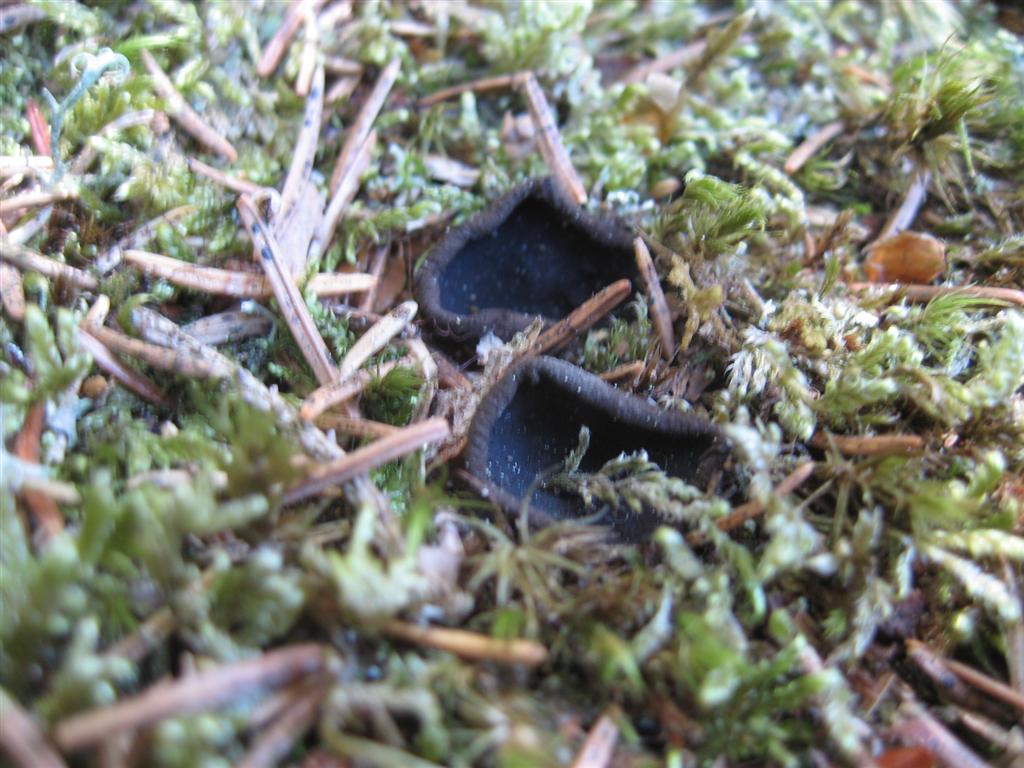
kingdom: Fungi
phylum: Ascomycota
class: Pezizomycetes
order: Pezizales
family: Sarcosomataceae
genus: Pseudoplectania
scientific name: Pseudoplectania nigrella
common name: almindelig sortbæger
